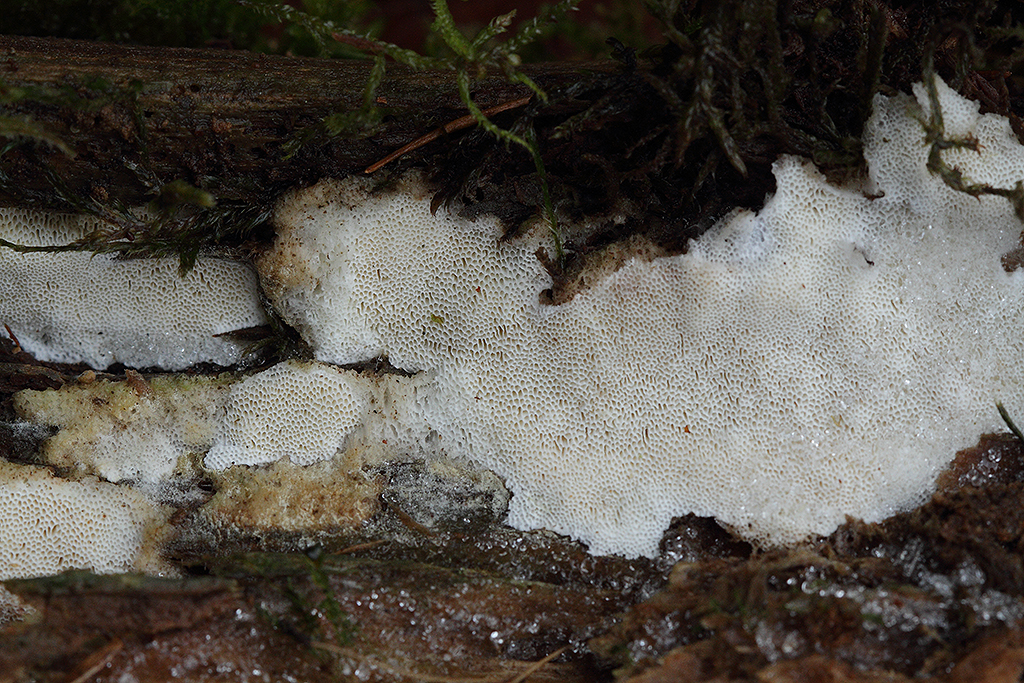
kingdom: Fungi
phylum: Basidiomycota
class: Agaricomycetes
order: Polyporales
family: Gelatoporiaceae
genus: Cinereomyces
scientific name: Cinereomyces lindbladii
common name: almindelig gråporesvamp
